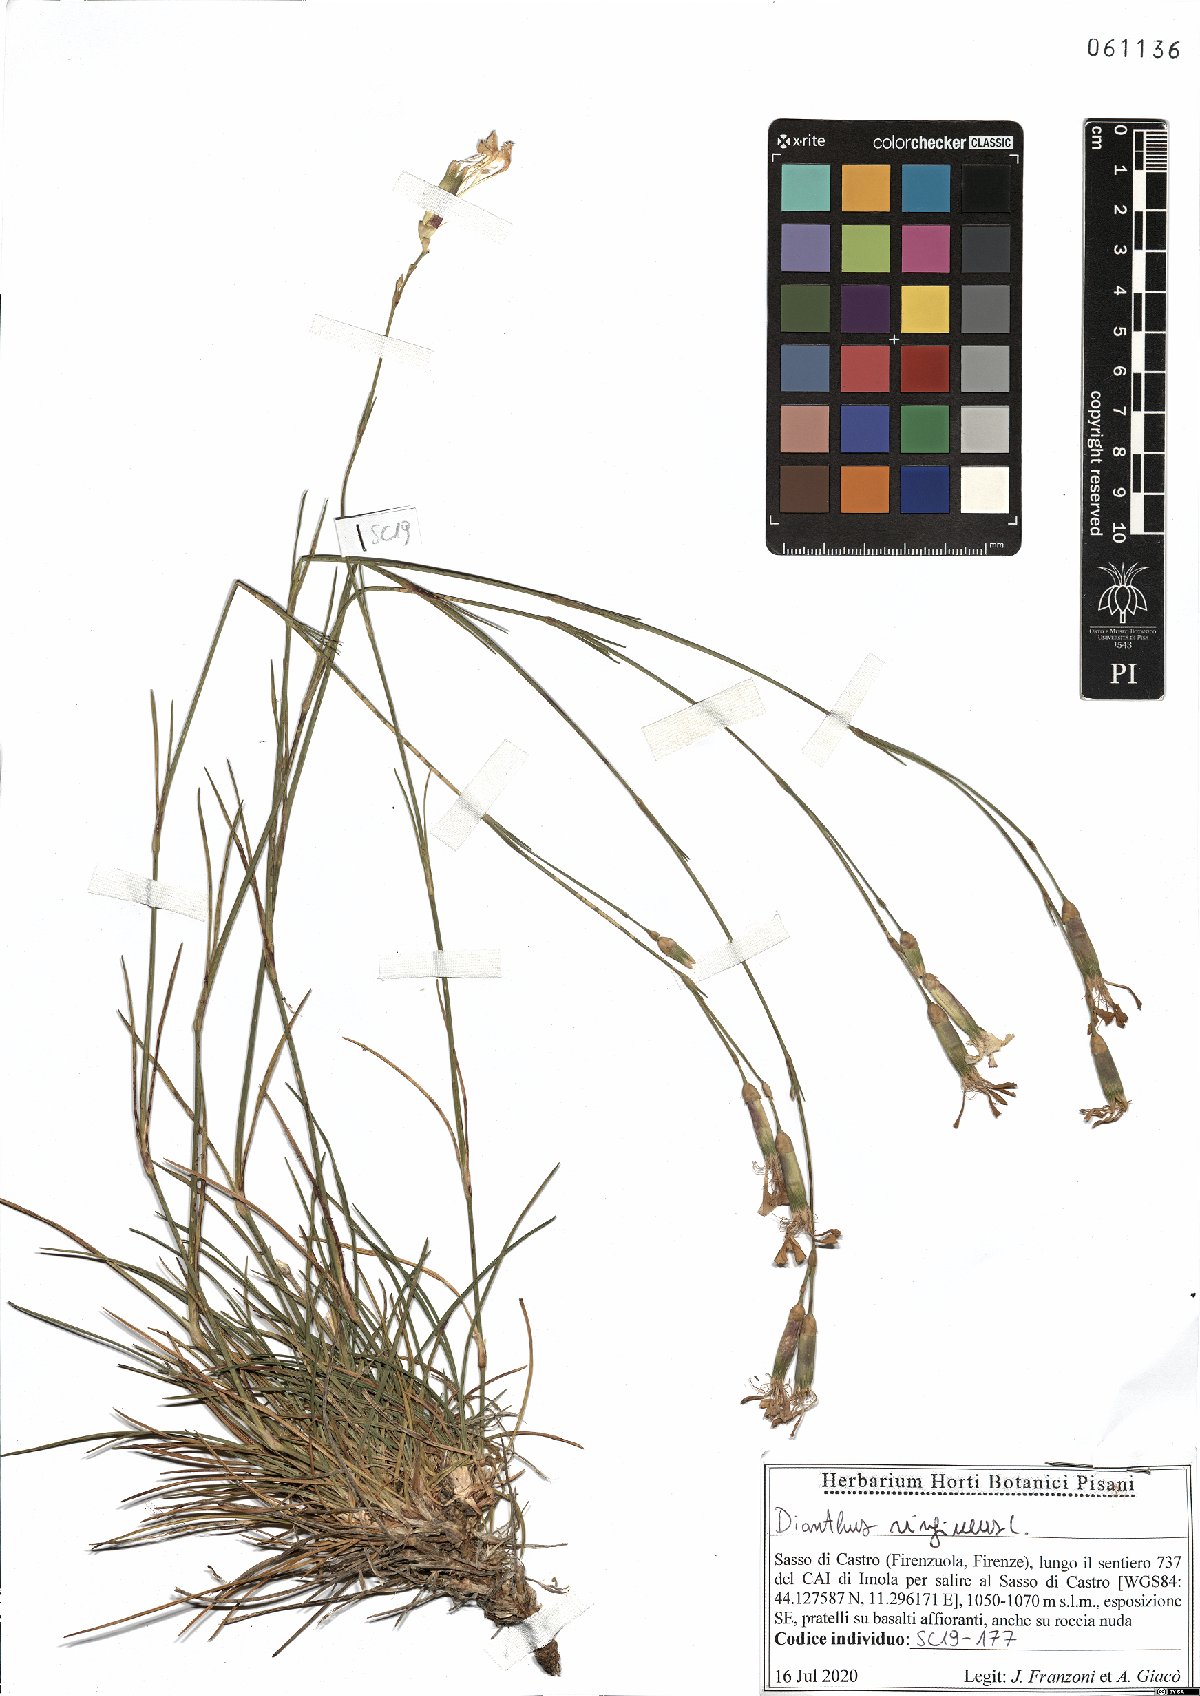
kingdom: Plantae
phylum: Tracheophyta
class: Magnoliopsida
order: Caryophyllales
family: Caryophyllaceae
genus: Dianthus
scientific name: Dianthus virgineus
